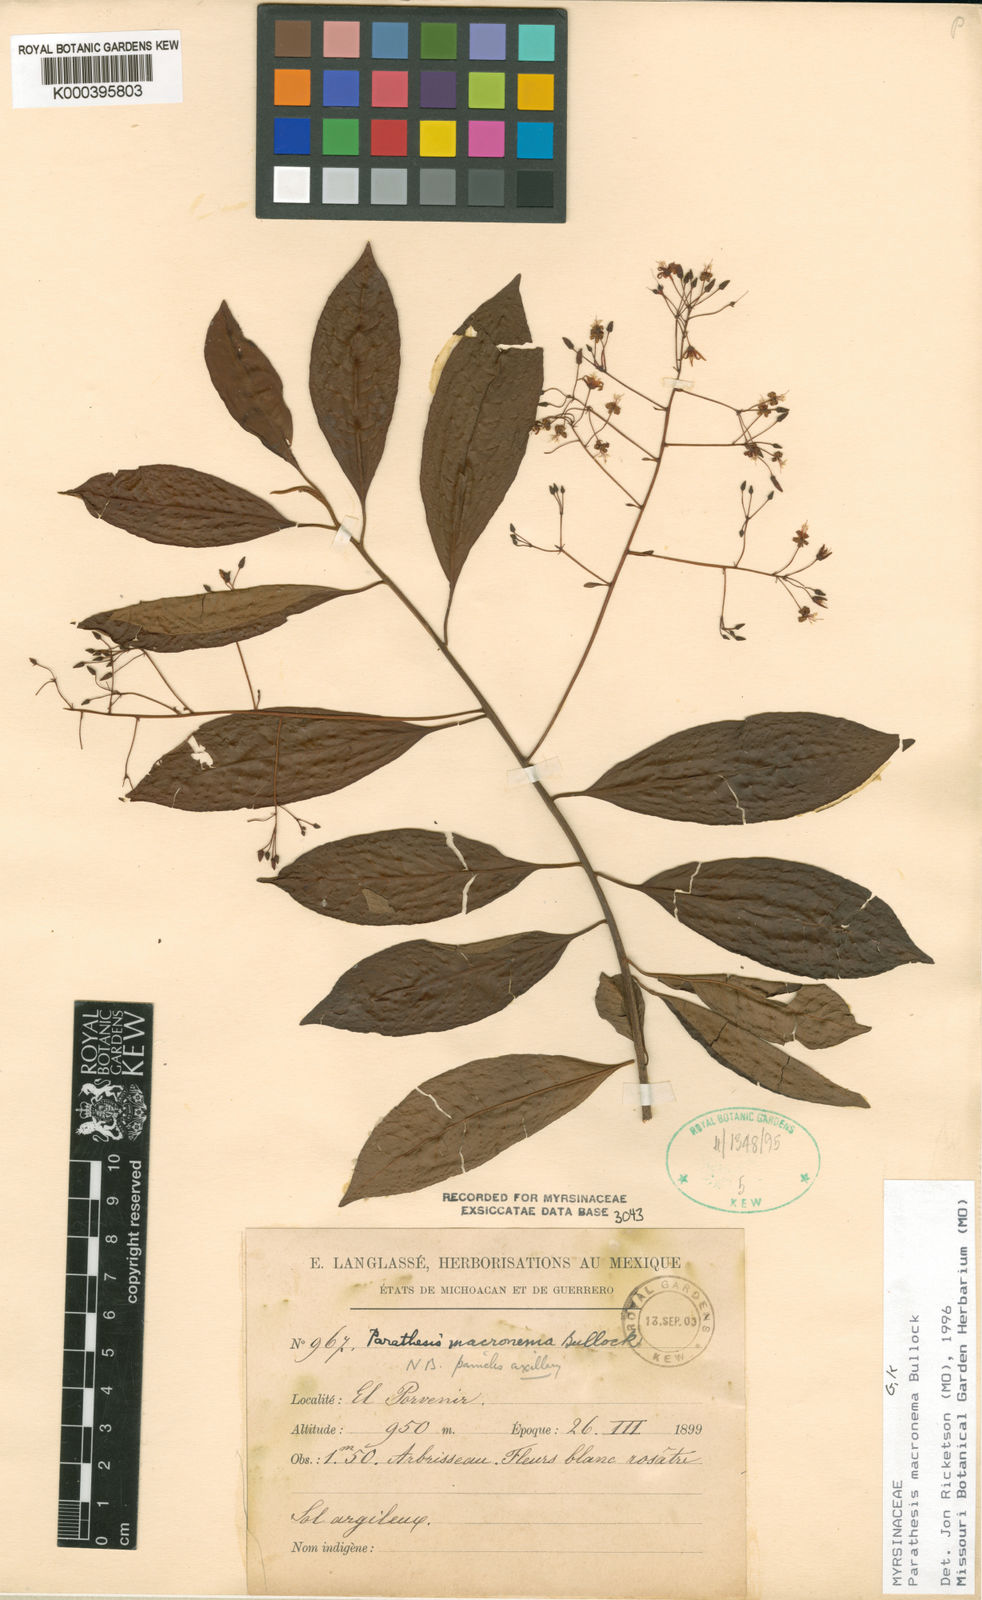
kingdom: Plantae
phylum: Tracheophyta
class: Magnoliopsida
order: Ericales
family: Primulaceae
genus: Parathesis
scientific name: Parathesis macronema
